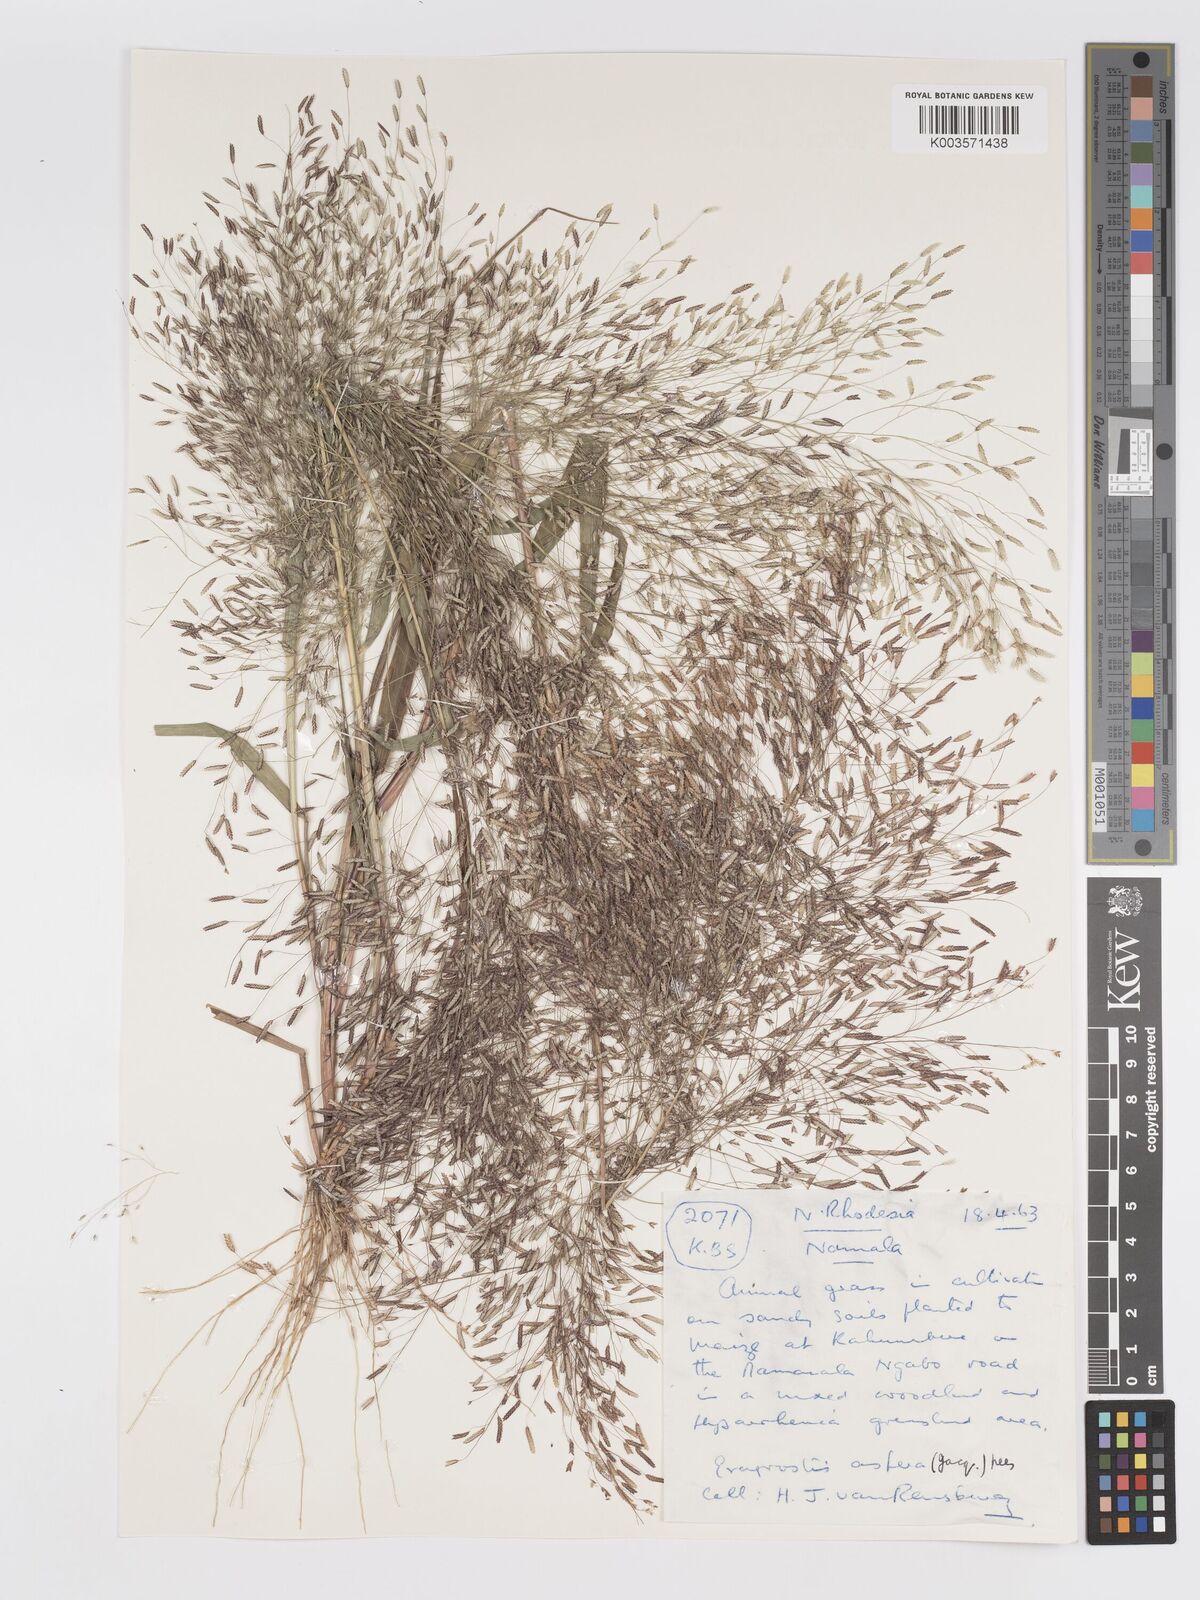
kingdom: Plantae
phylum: Tracheophyta
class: Liliopsida
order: Poales
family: Poaceae
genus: Eragrostis
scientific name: Eragrostis aspera
